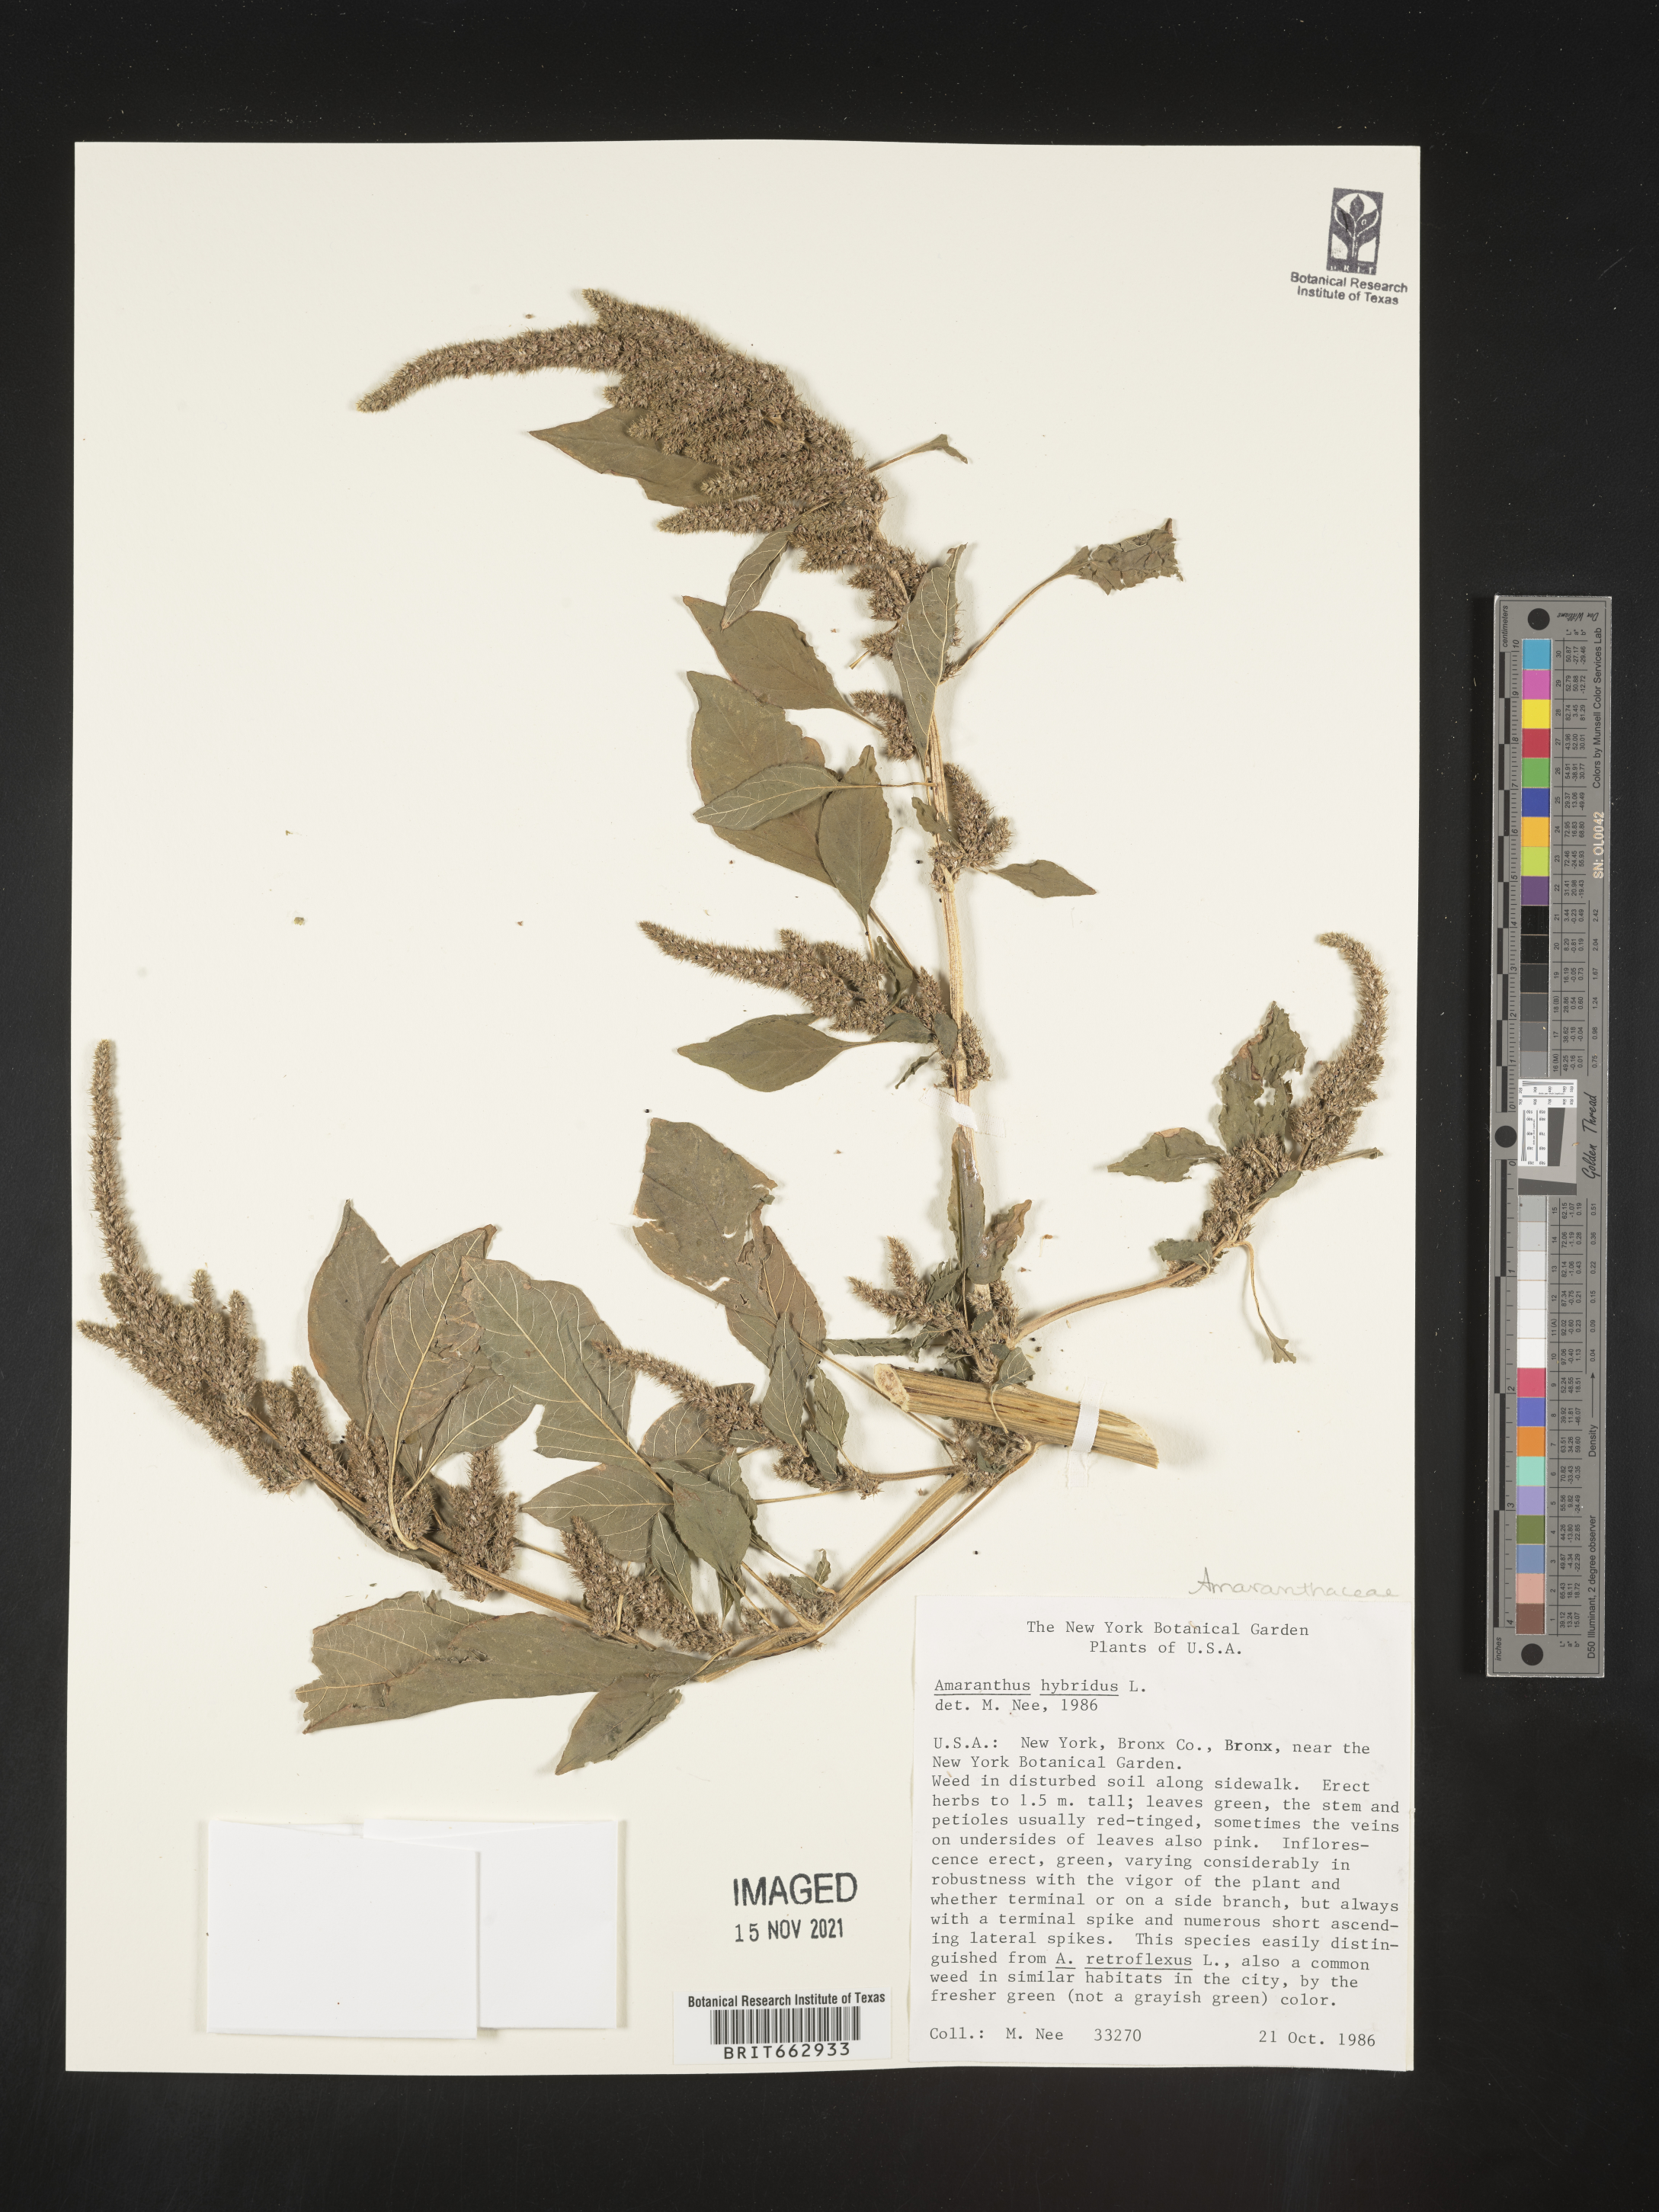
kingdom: Plantae
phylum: Tracheophyta
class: Magnoliopsida
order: Caryophyllales
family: Amaranthaceae
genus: Amaranthus
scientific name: Amaranthus hybridus
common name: Green amaranth
